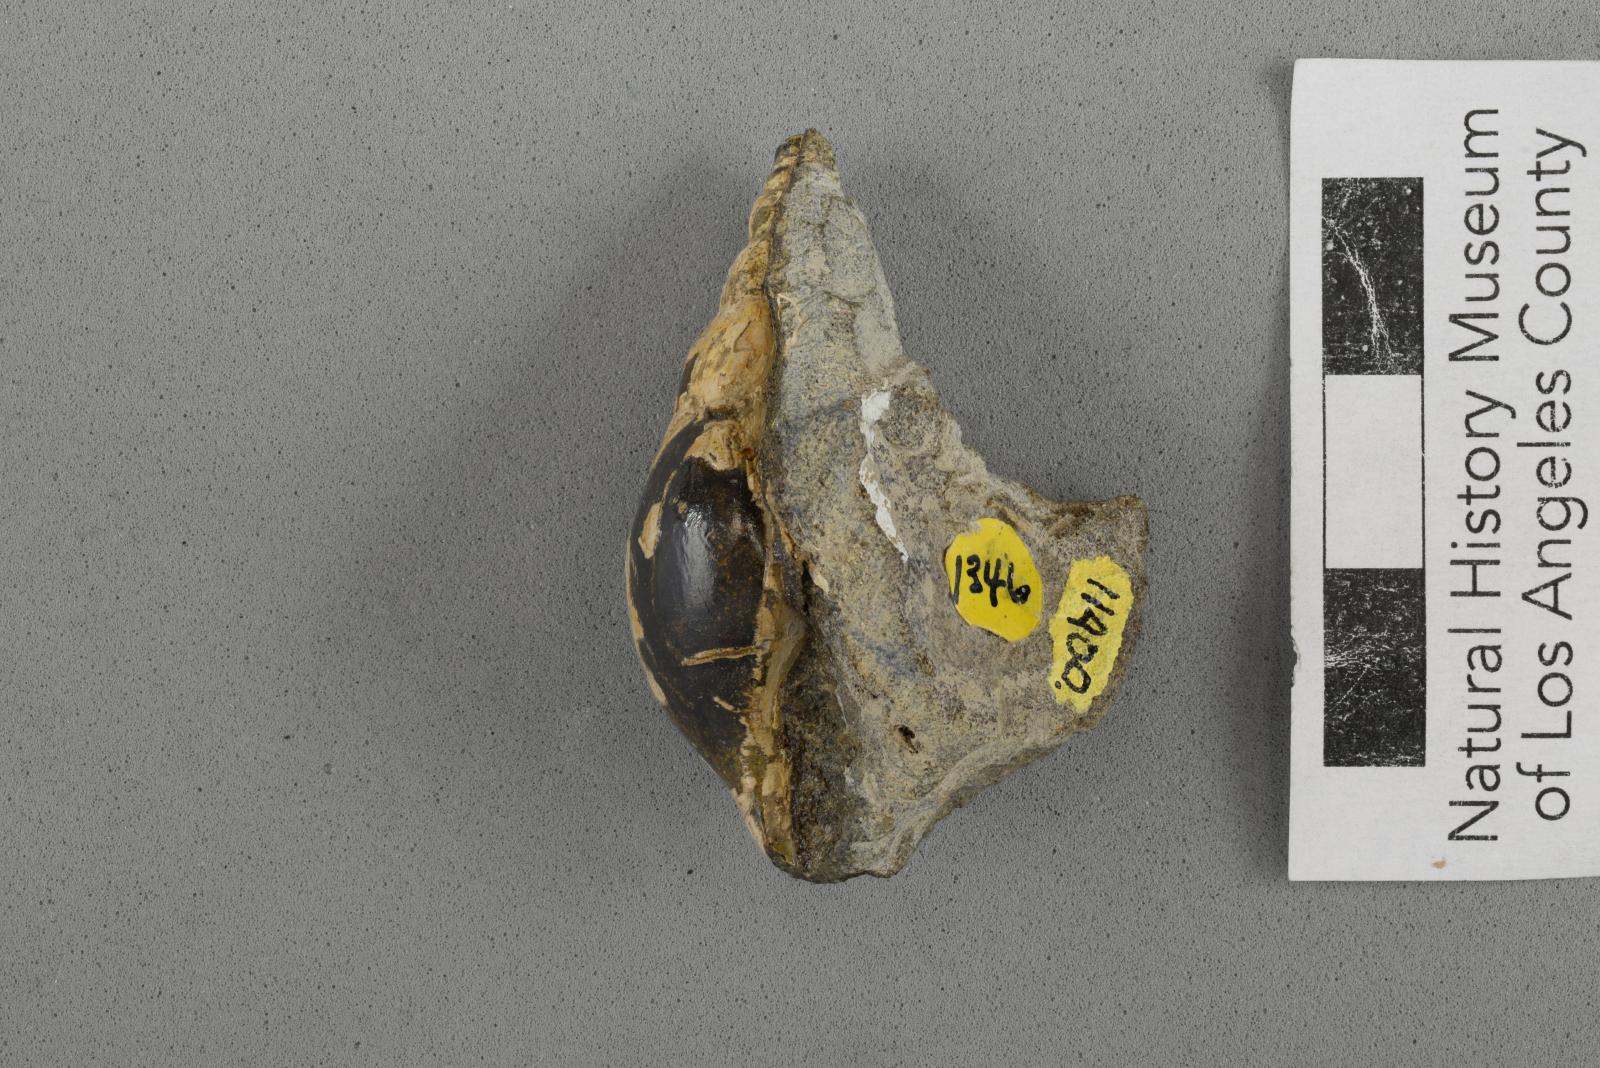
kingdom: Animalia
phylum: Mollusca
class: Gastropoda
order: Littorinimorpha
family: Aporrhaidae
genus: Latiala
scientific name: Latiala sigma
